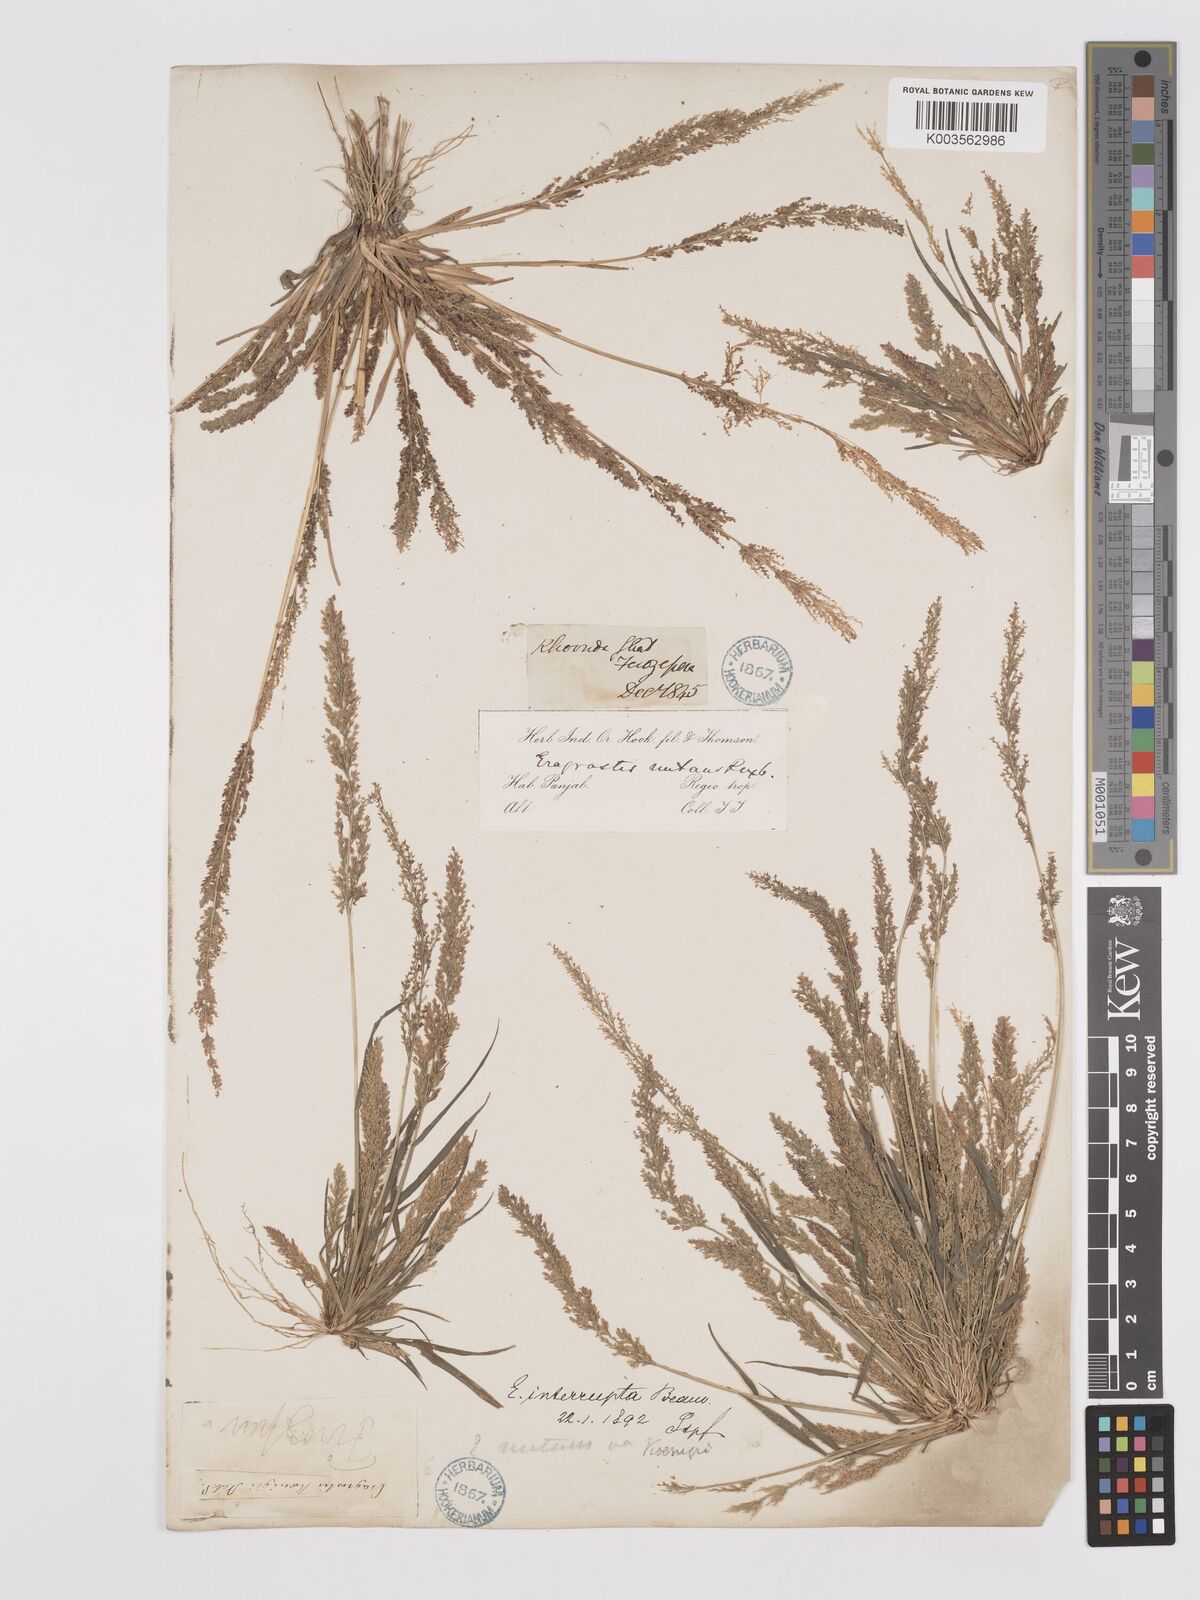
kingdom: Plantae
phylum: Tracheophyta
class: Liliopsida
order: Poales
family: Poaceae
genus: Eragrostis
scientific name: Eragrostis japonica
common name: Pond lovegrass
